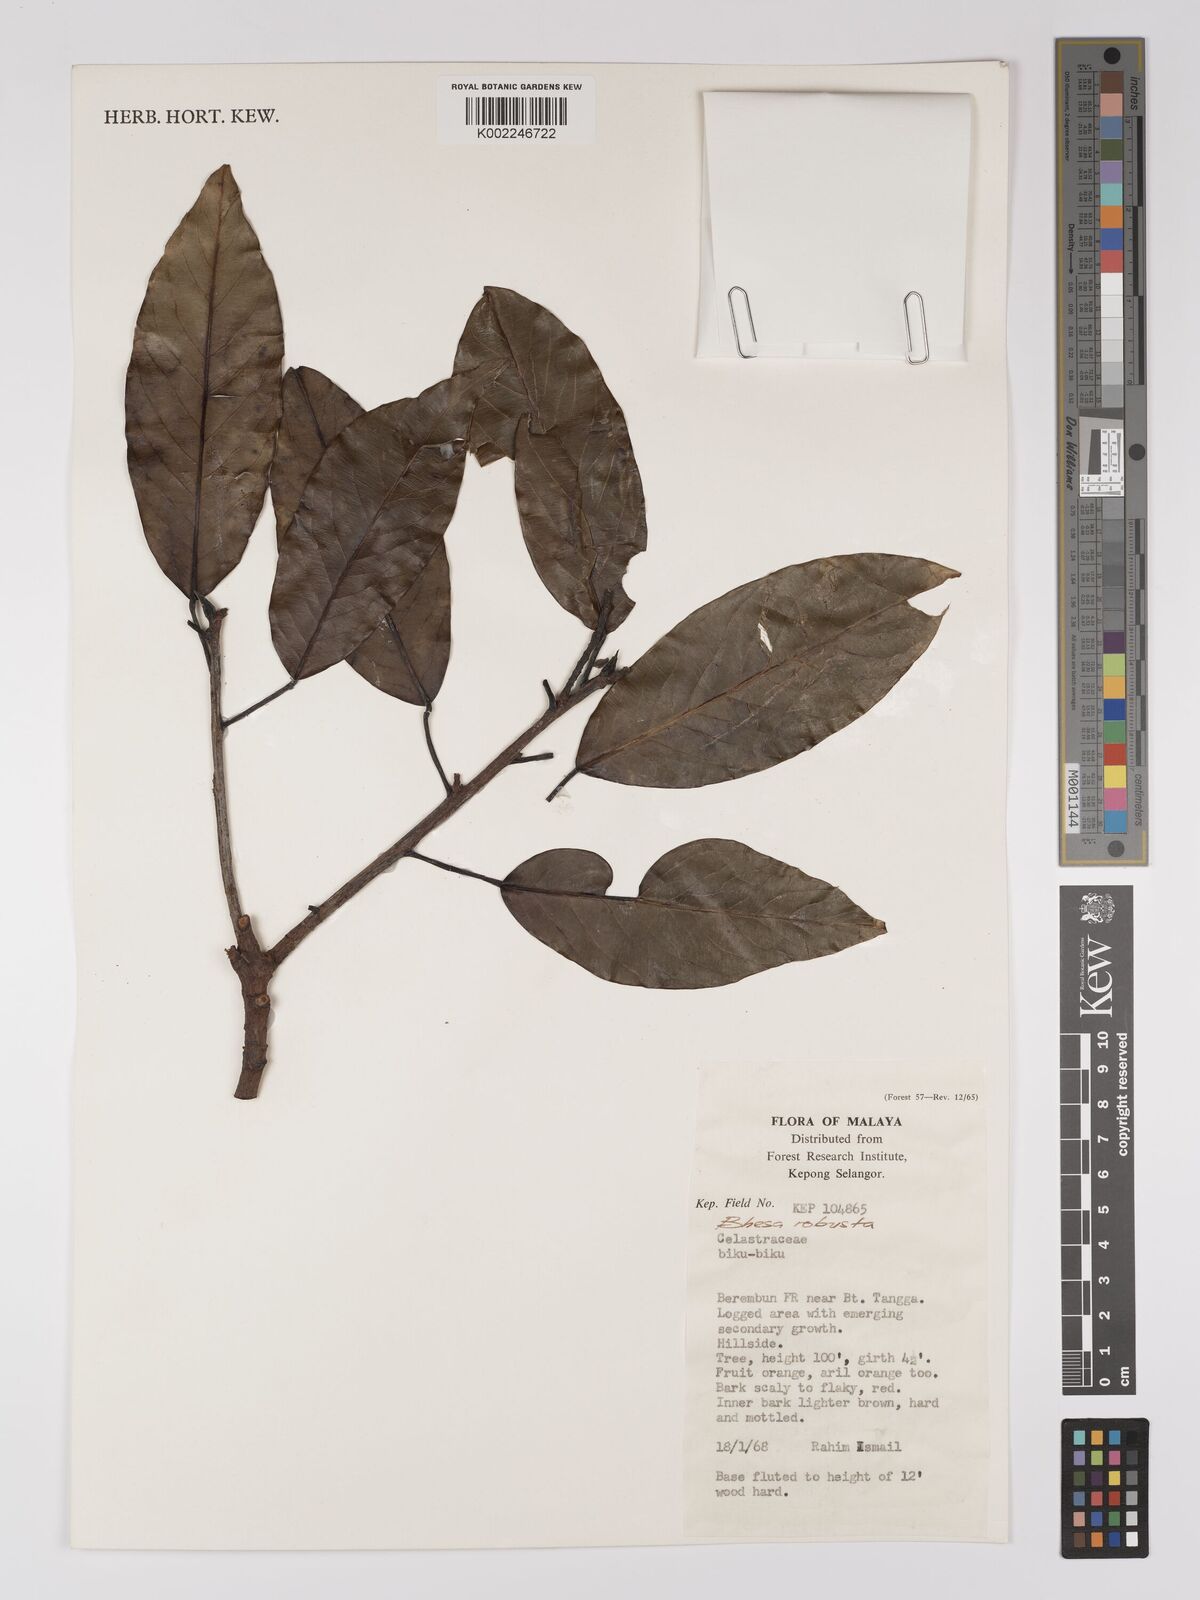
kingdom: Plantae
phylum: Tracheophyta
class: Magnoliopsida
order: Malpighiales
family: Centroplacaceae
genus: Bhesa
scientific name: Bhesa robusta
